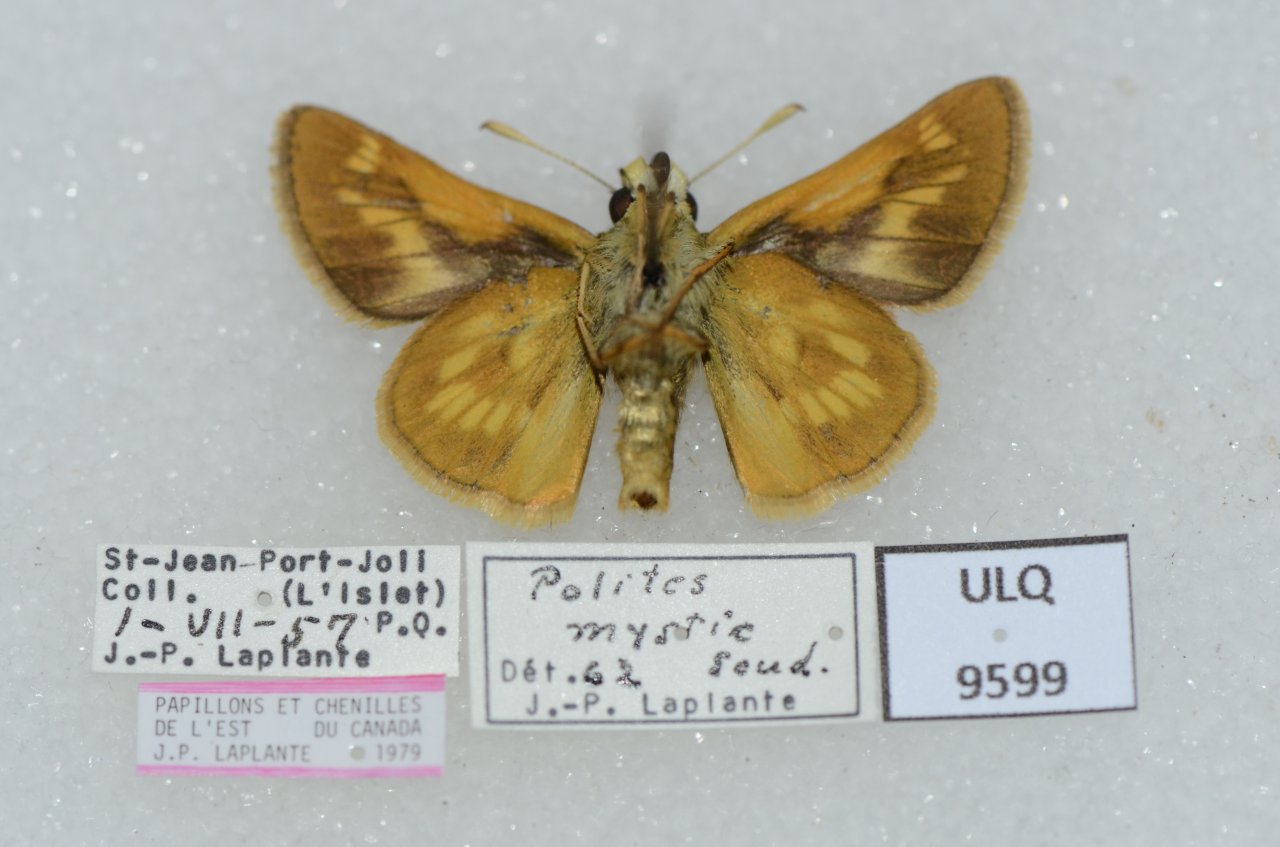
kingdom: Animalia
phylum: Arthropoda
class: Insecta
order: Lepidoptera
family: Hesperiidae
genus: Polites
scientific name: Polites
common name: Long Dash Skipper
